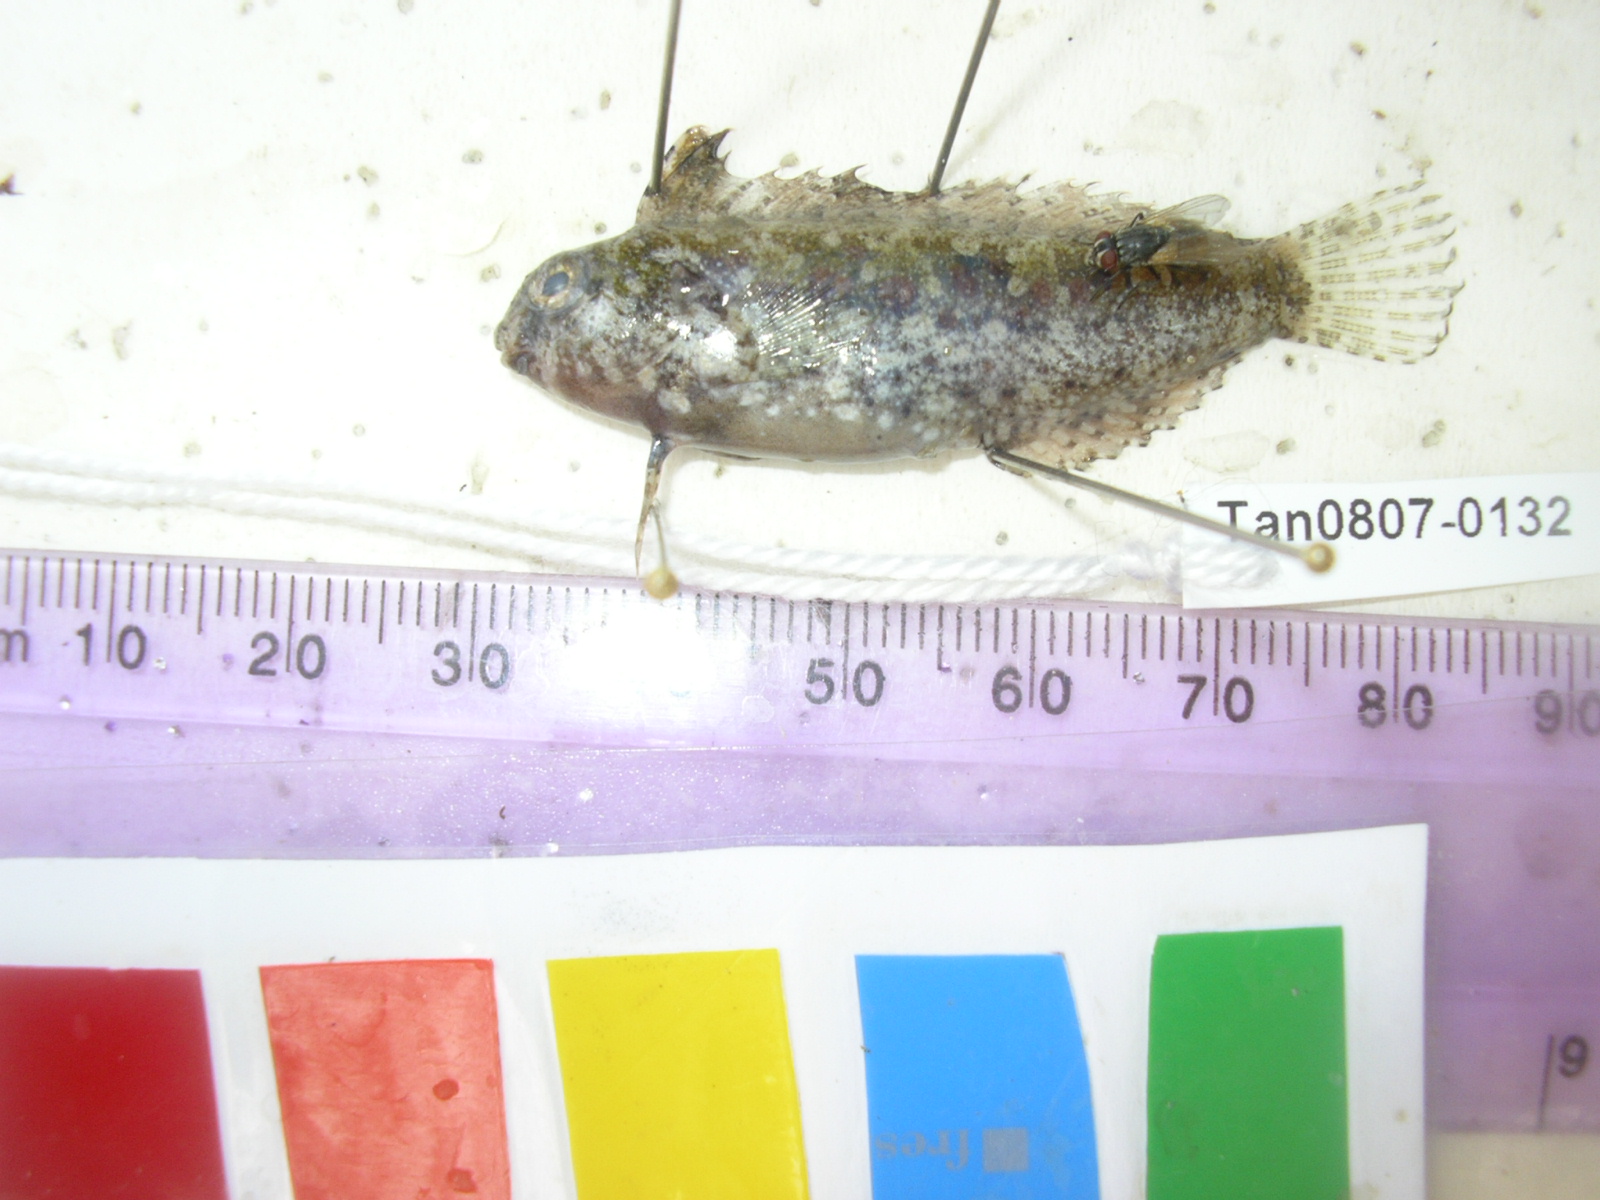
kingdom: Animalia
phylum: Chordata
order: Perciformes
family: Blenniidae
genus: Petroscirtes
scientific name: Petroscirtes variabilis
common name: Variable sabretooth blenny
